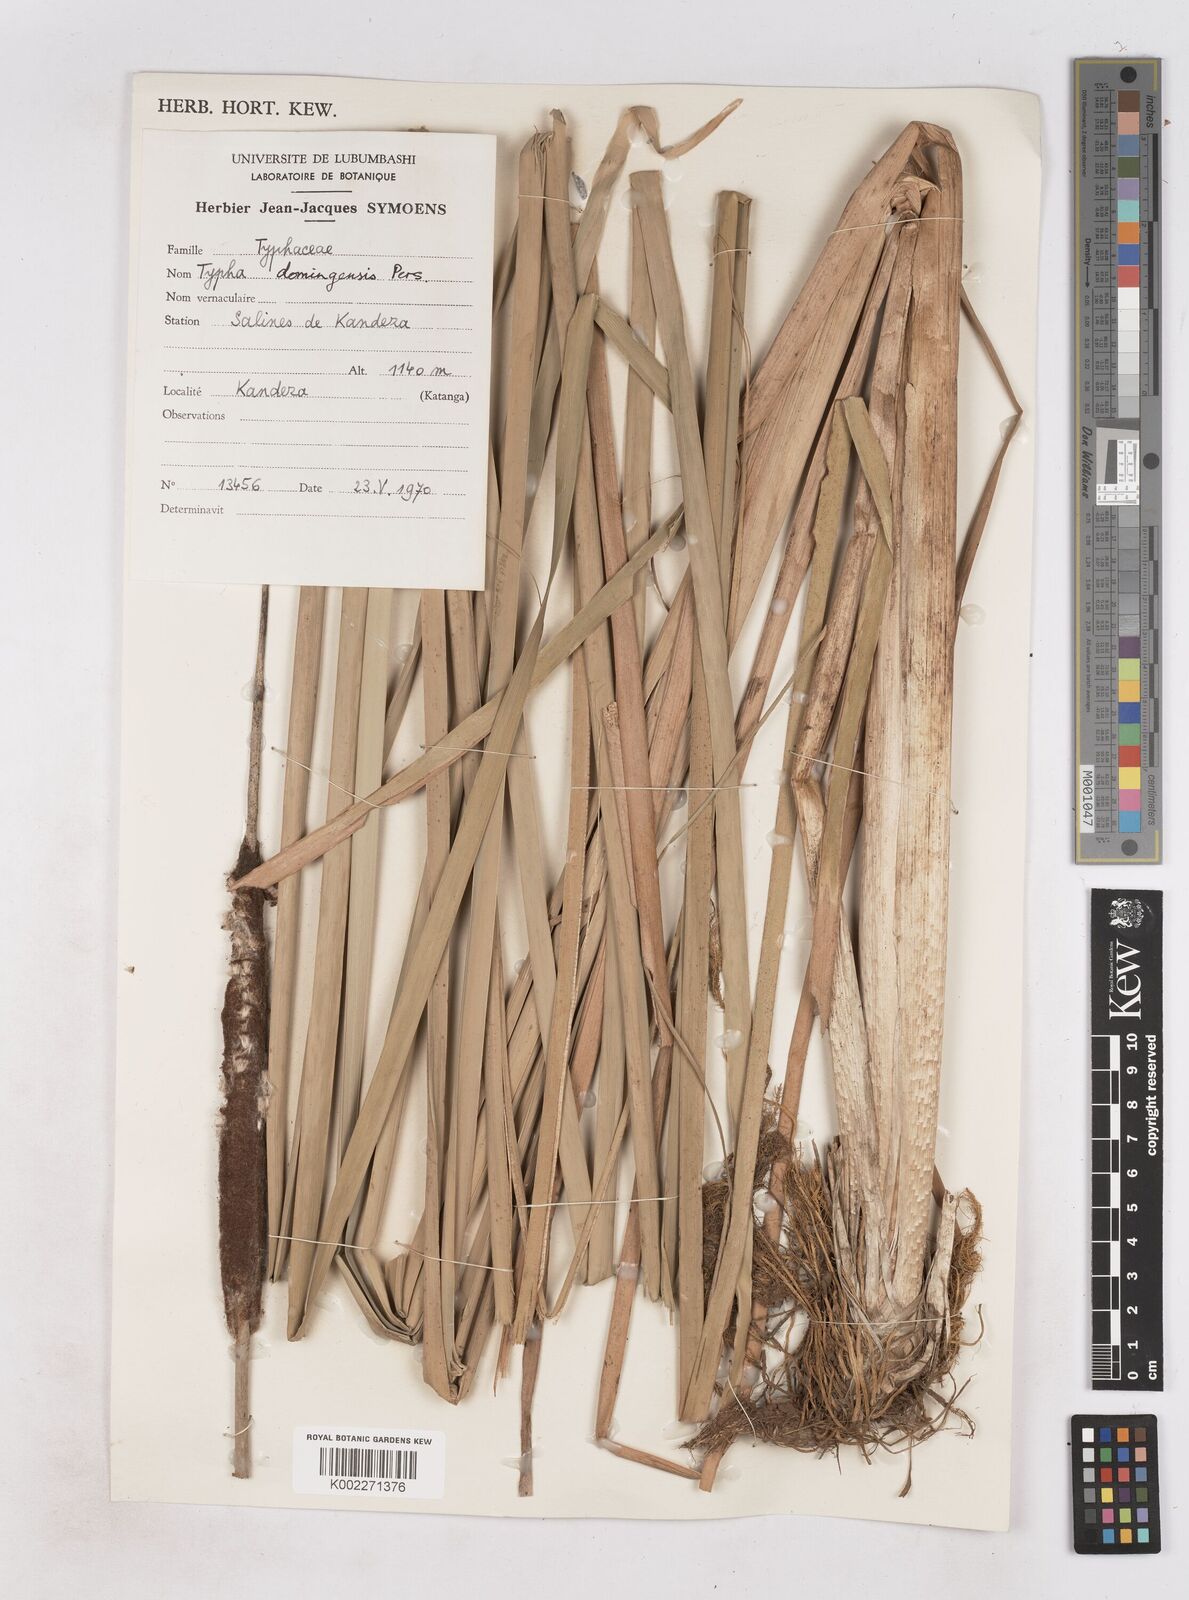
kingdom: Plantae
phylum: Tracheophyta
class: Liliopsida
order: Poales
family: Typhaceae
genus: Typha
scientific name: Typha domingensis
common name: Southern cattail
